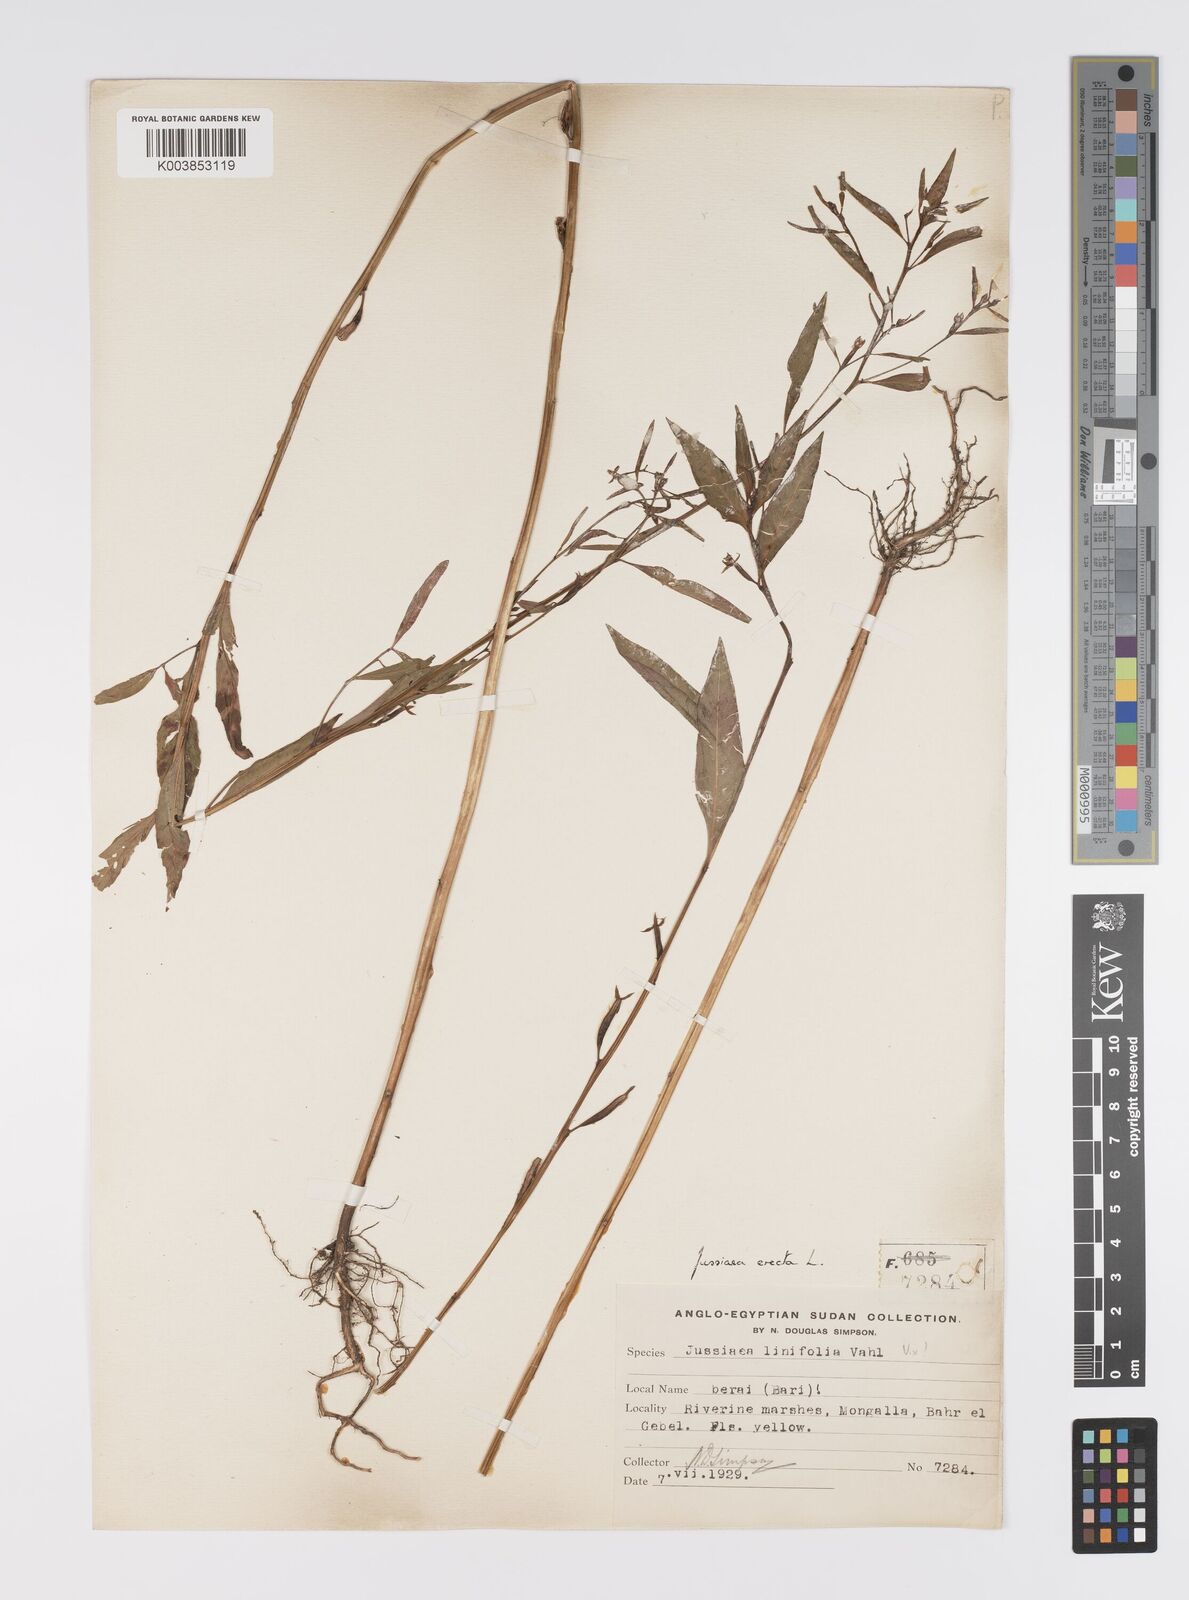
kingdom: Plantae
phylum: Tracheophyta
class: Magnoliopsida
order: Myrtales
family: Onagraceae
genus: Ludwigia
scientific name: Ludwigia erecta
